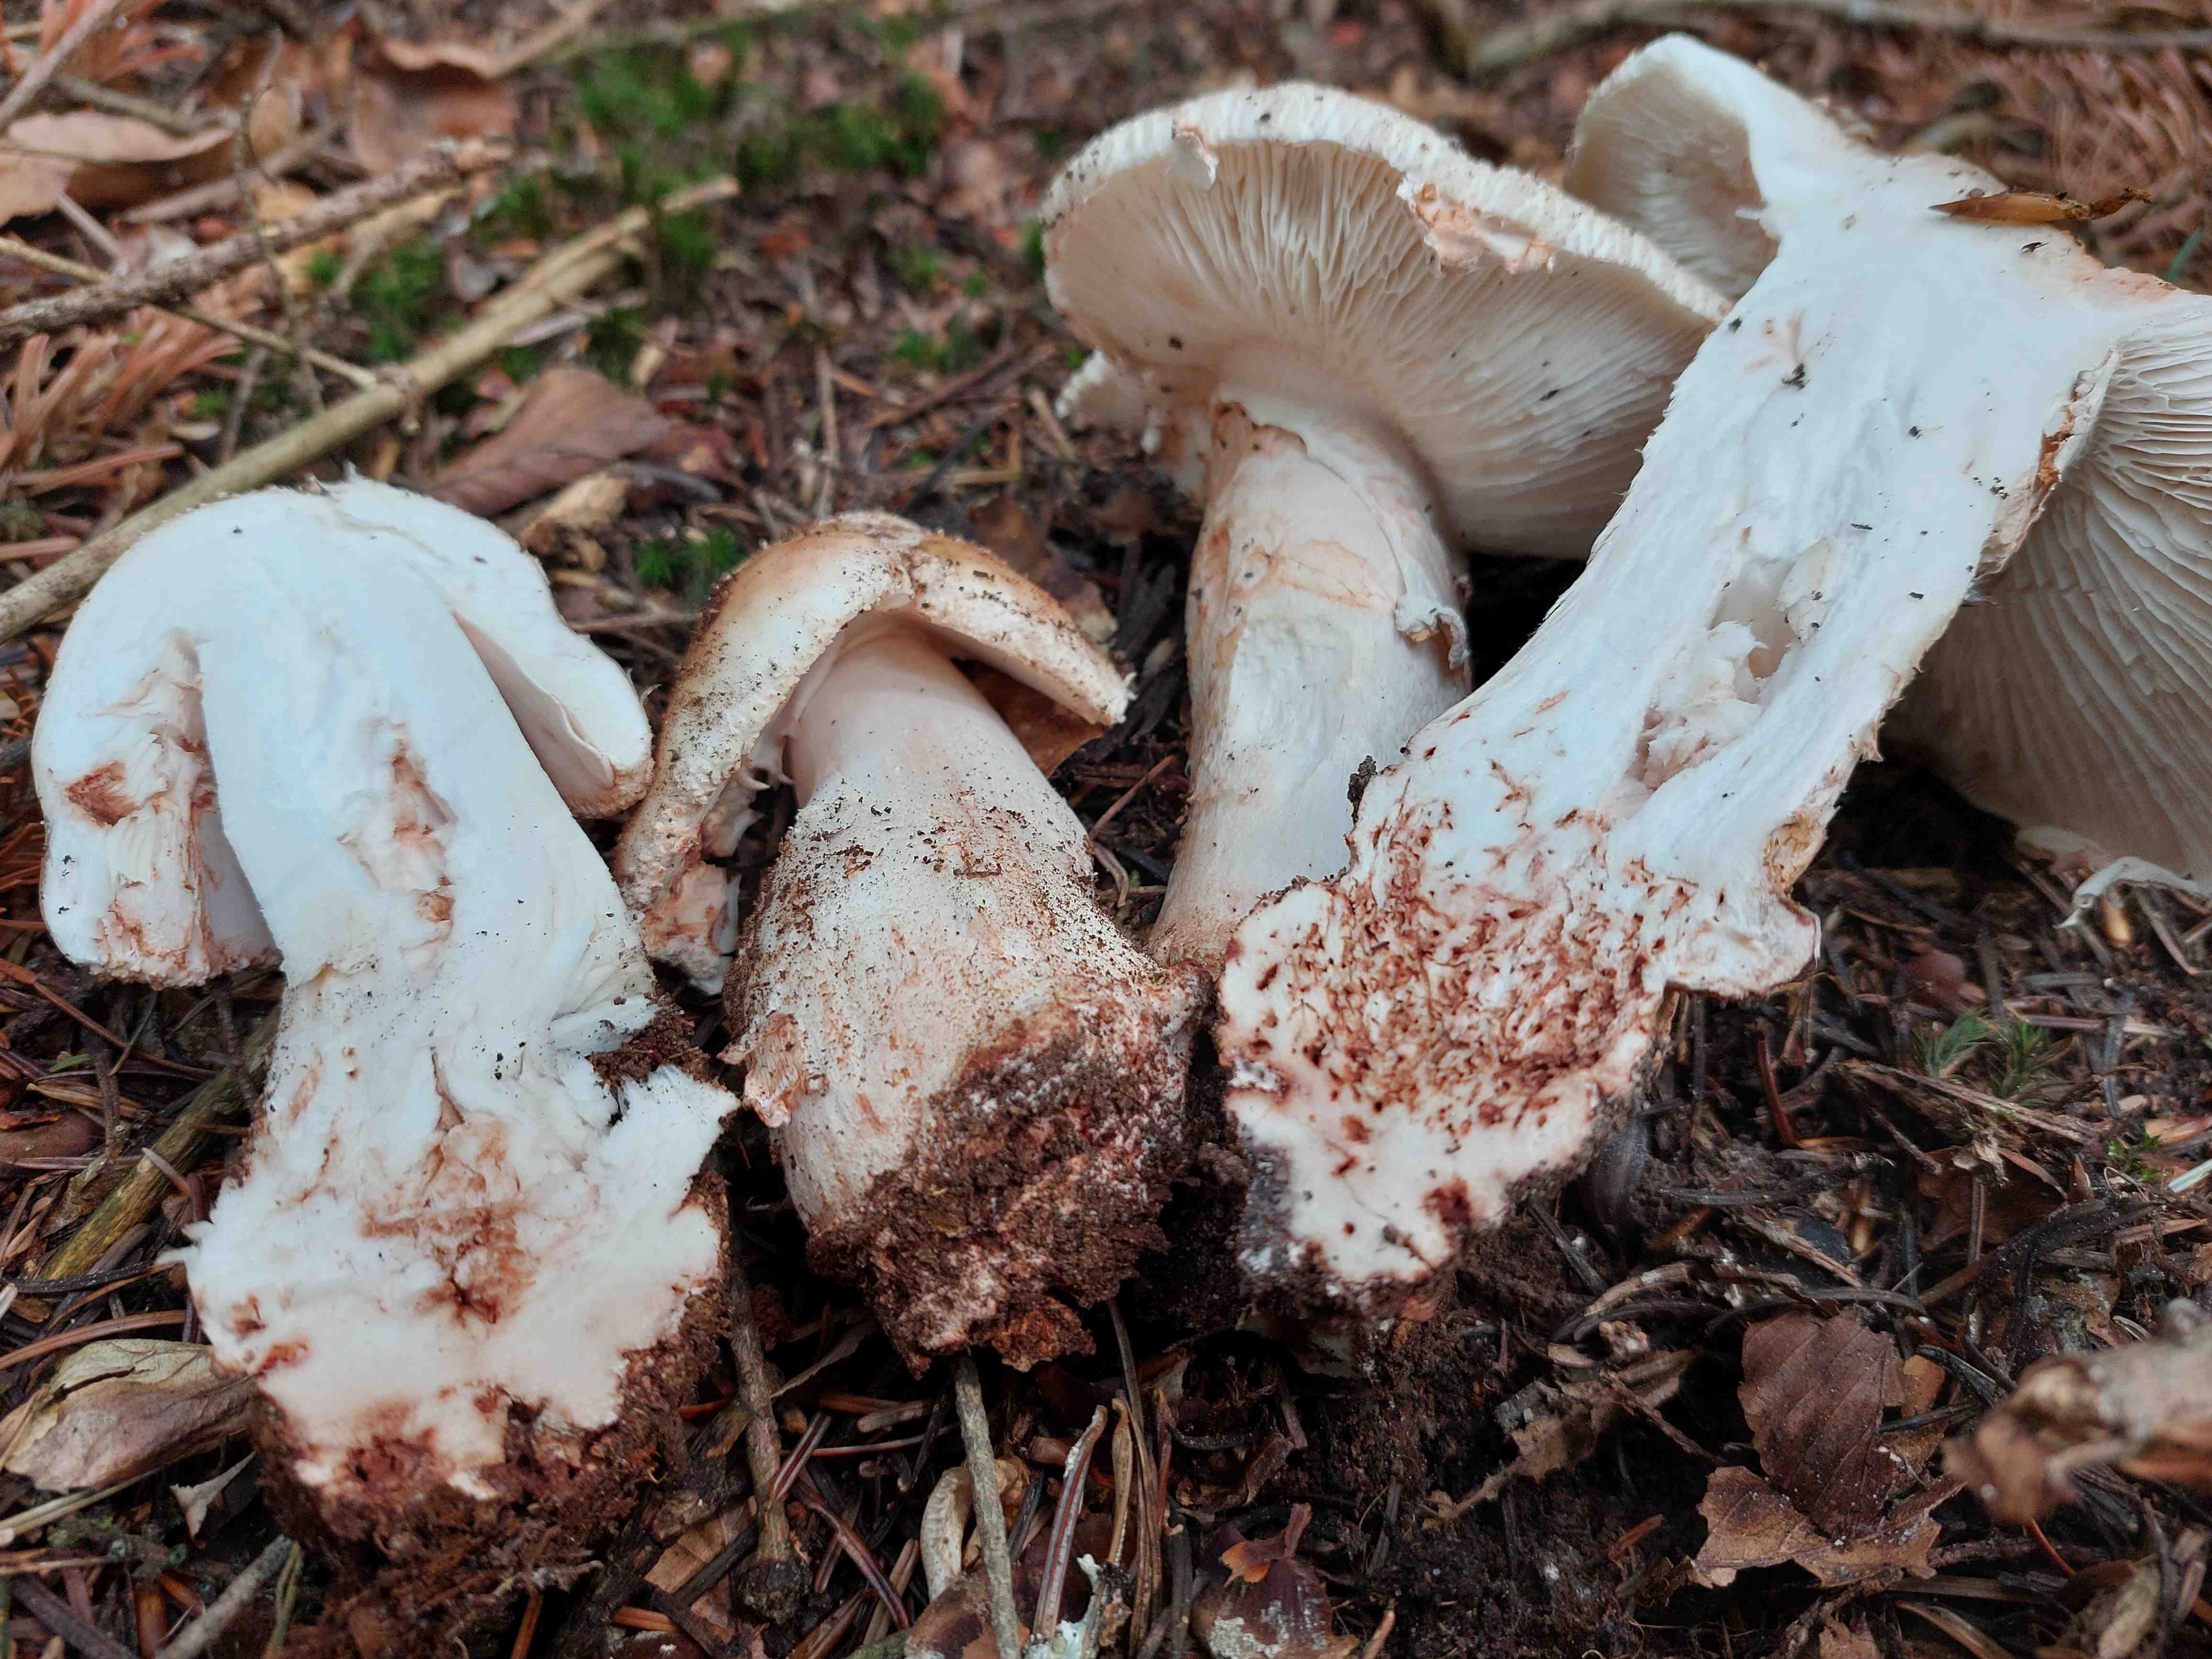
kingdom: Fungi
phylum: Basidiomycota
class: Agaricomycetes
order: Agaricales
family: Amanitaceae
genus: Amanita
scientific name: Amanita rubescens
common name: rødmende fluesvamp
